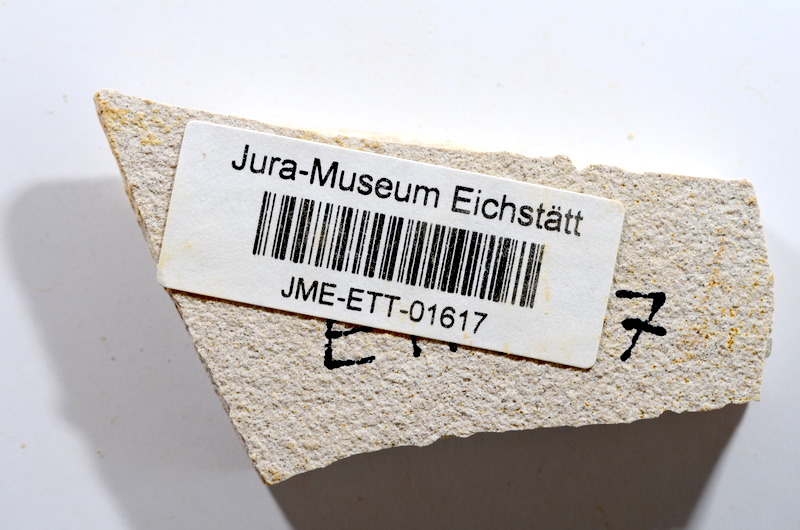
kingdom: Animalia
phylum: Chordata
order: Salmoniformes
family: Orthogonikleithridae
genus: Orthogonikleithrus
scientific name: Orthogonikleithrus hoelli
